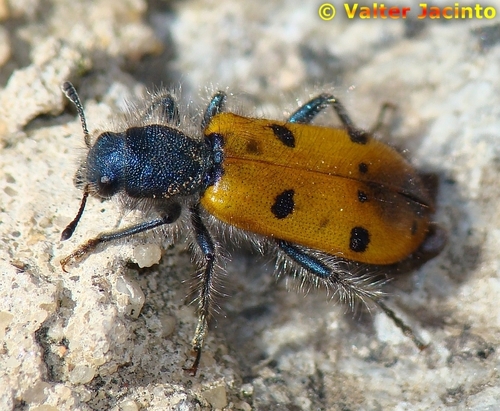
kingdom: Animalia
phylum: Arthropoda
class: Insecta
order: Coleoptera
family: Cleridae
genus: Trichodes
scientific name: Trichodes octopunctatus
